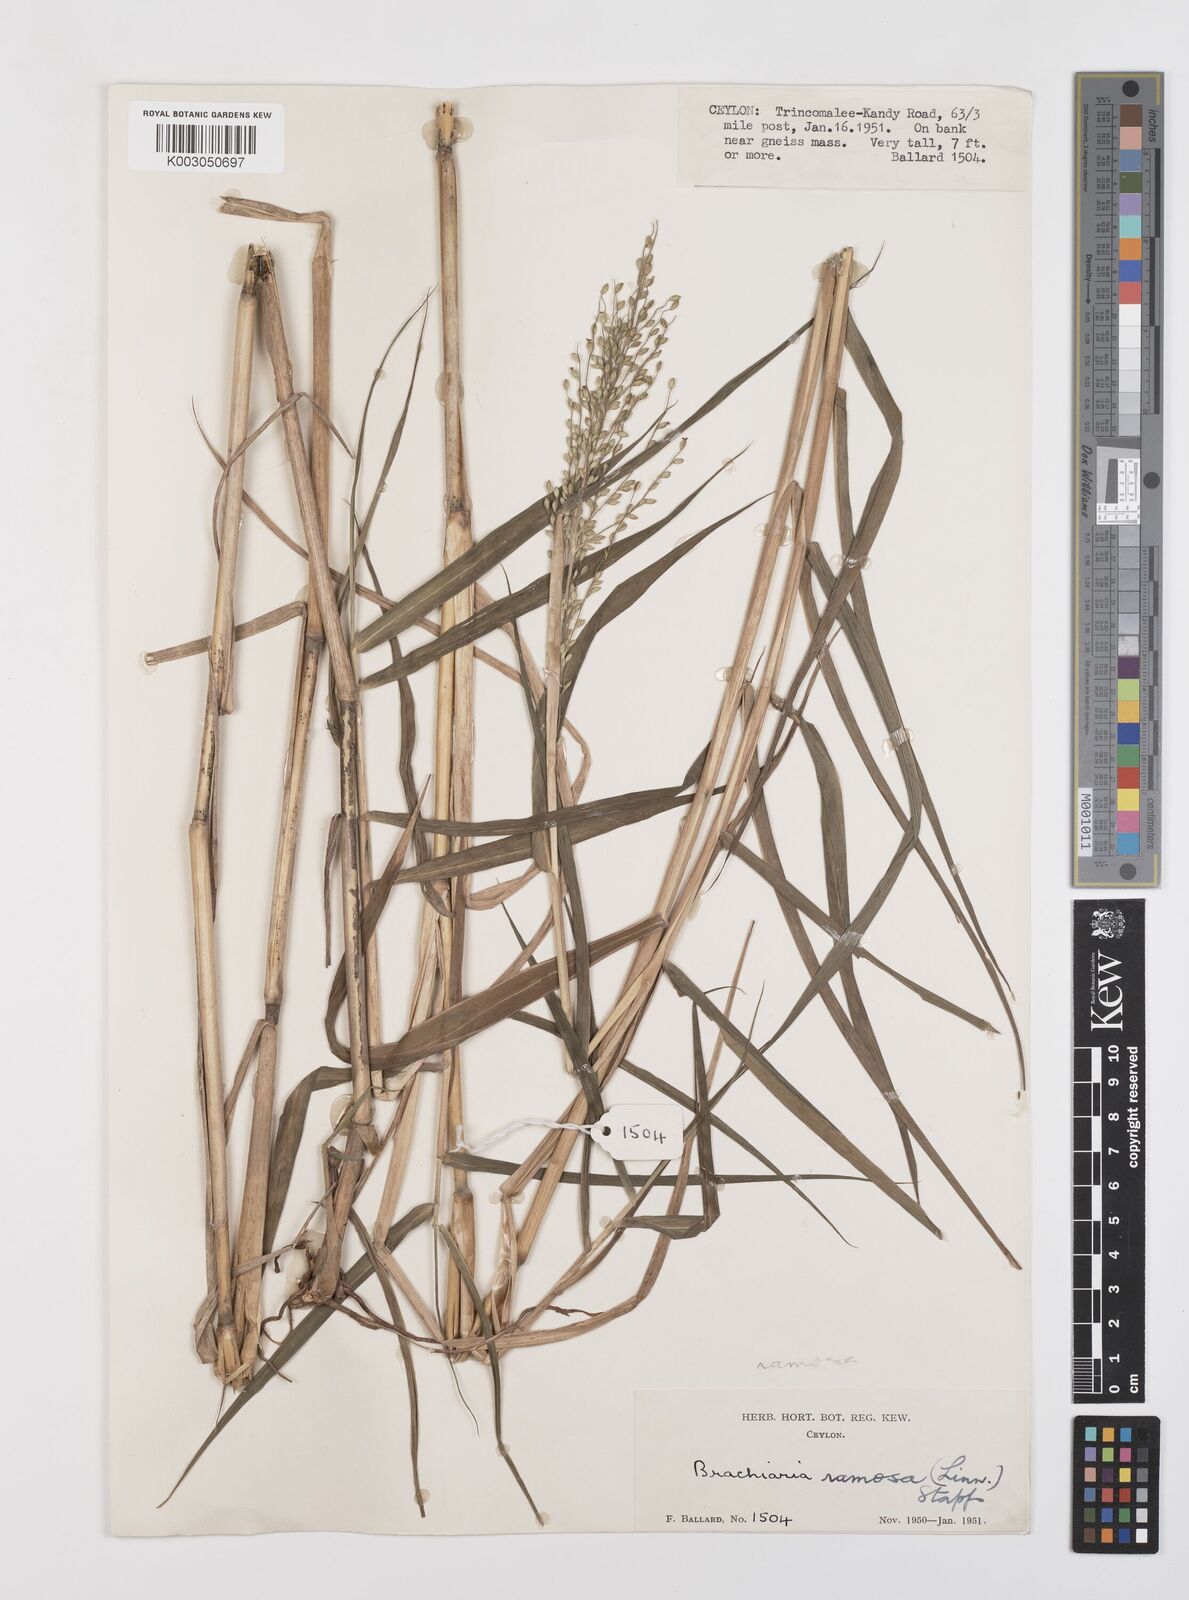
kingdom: Plantae
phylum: Tracheophyta
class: Liliopsida
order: Poales
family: Poaceae
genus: Urochloa
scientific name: Urochloa semiundulata
